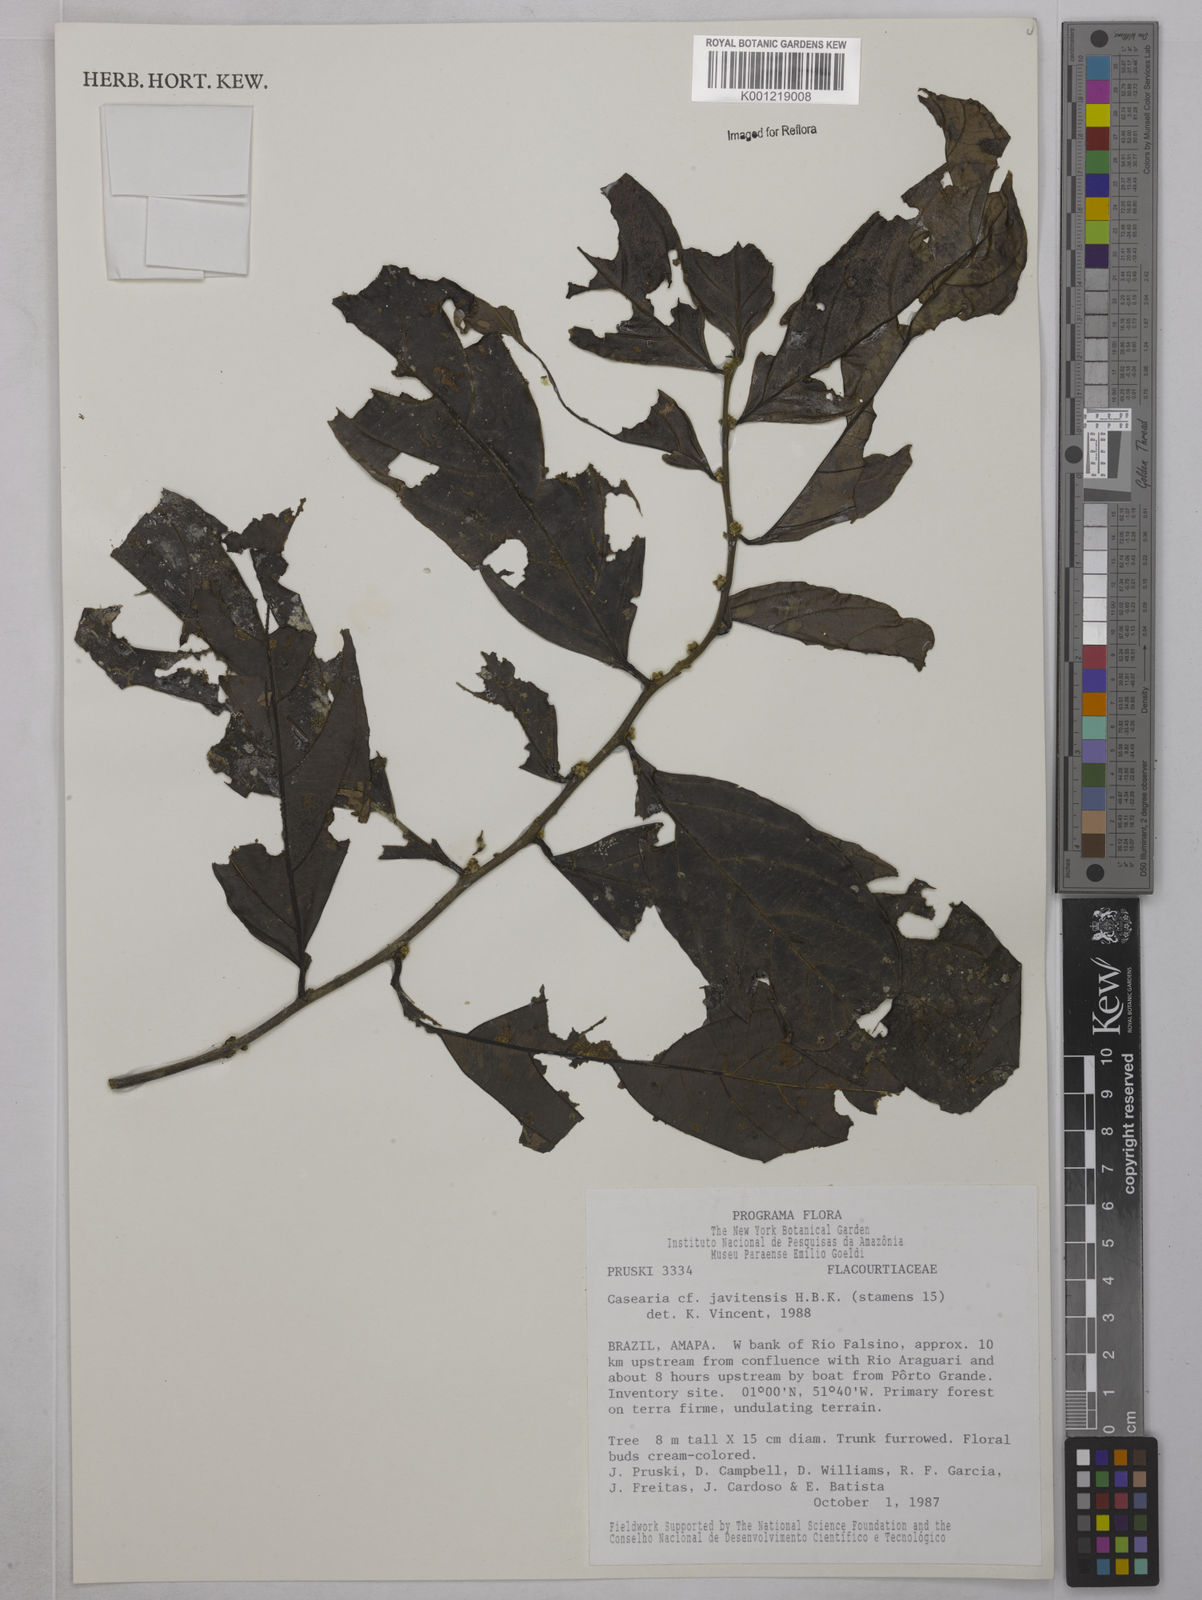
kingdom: Plantae
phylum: Tracheophyta
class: Magnoliopsida
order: Malpighiales
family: Salicaceae
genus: Piparea
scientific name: Piparea multiflora
